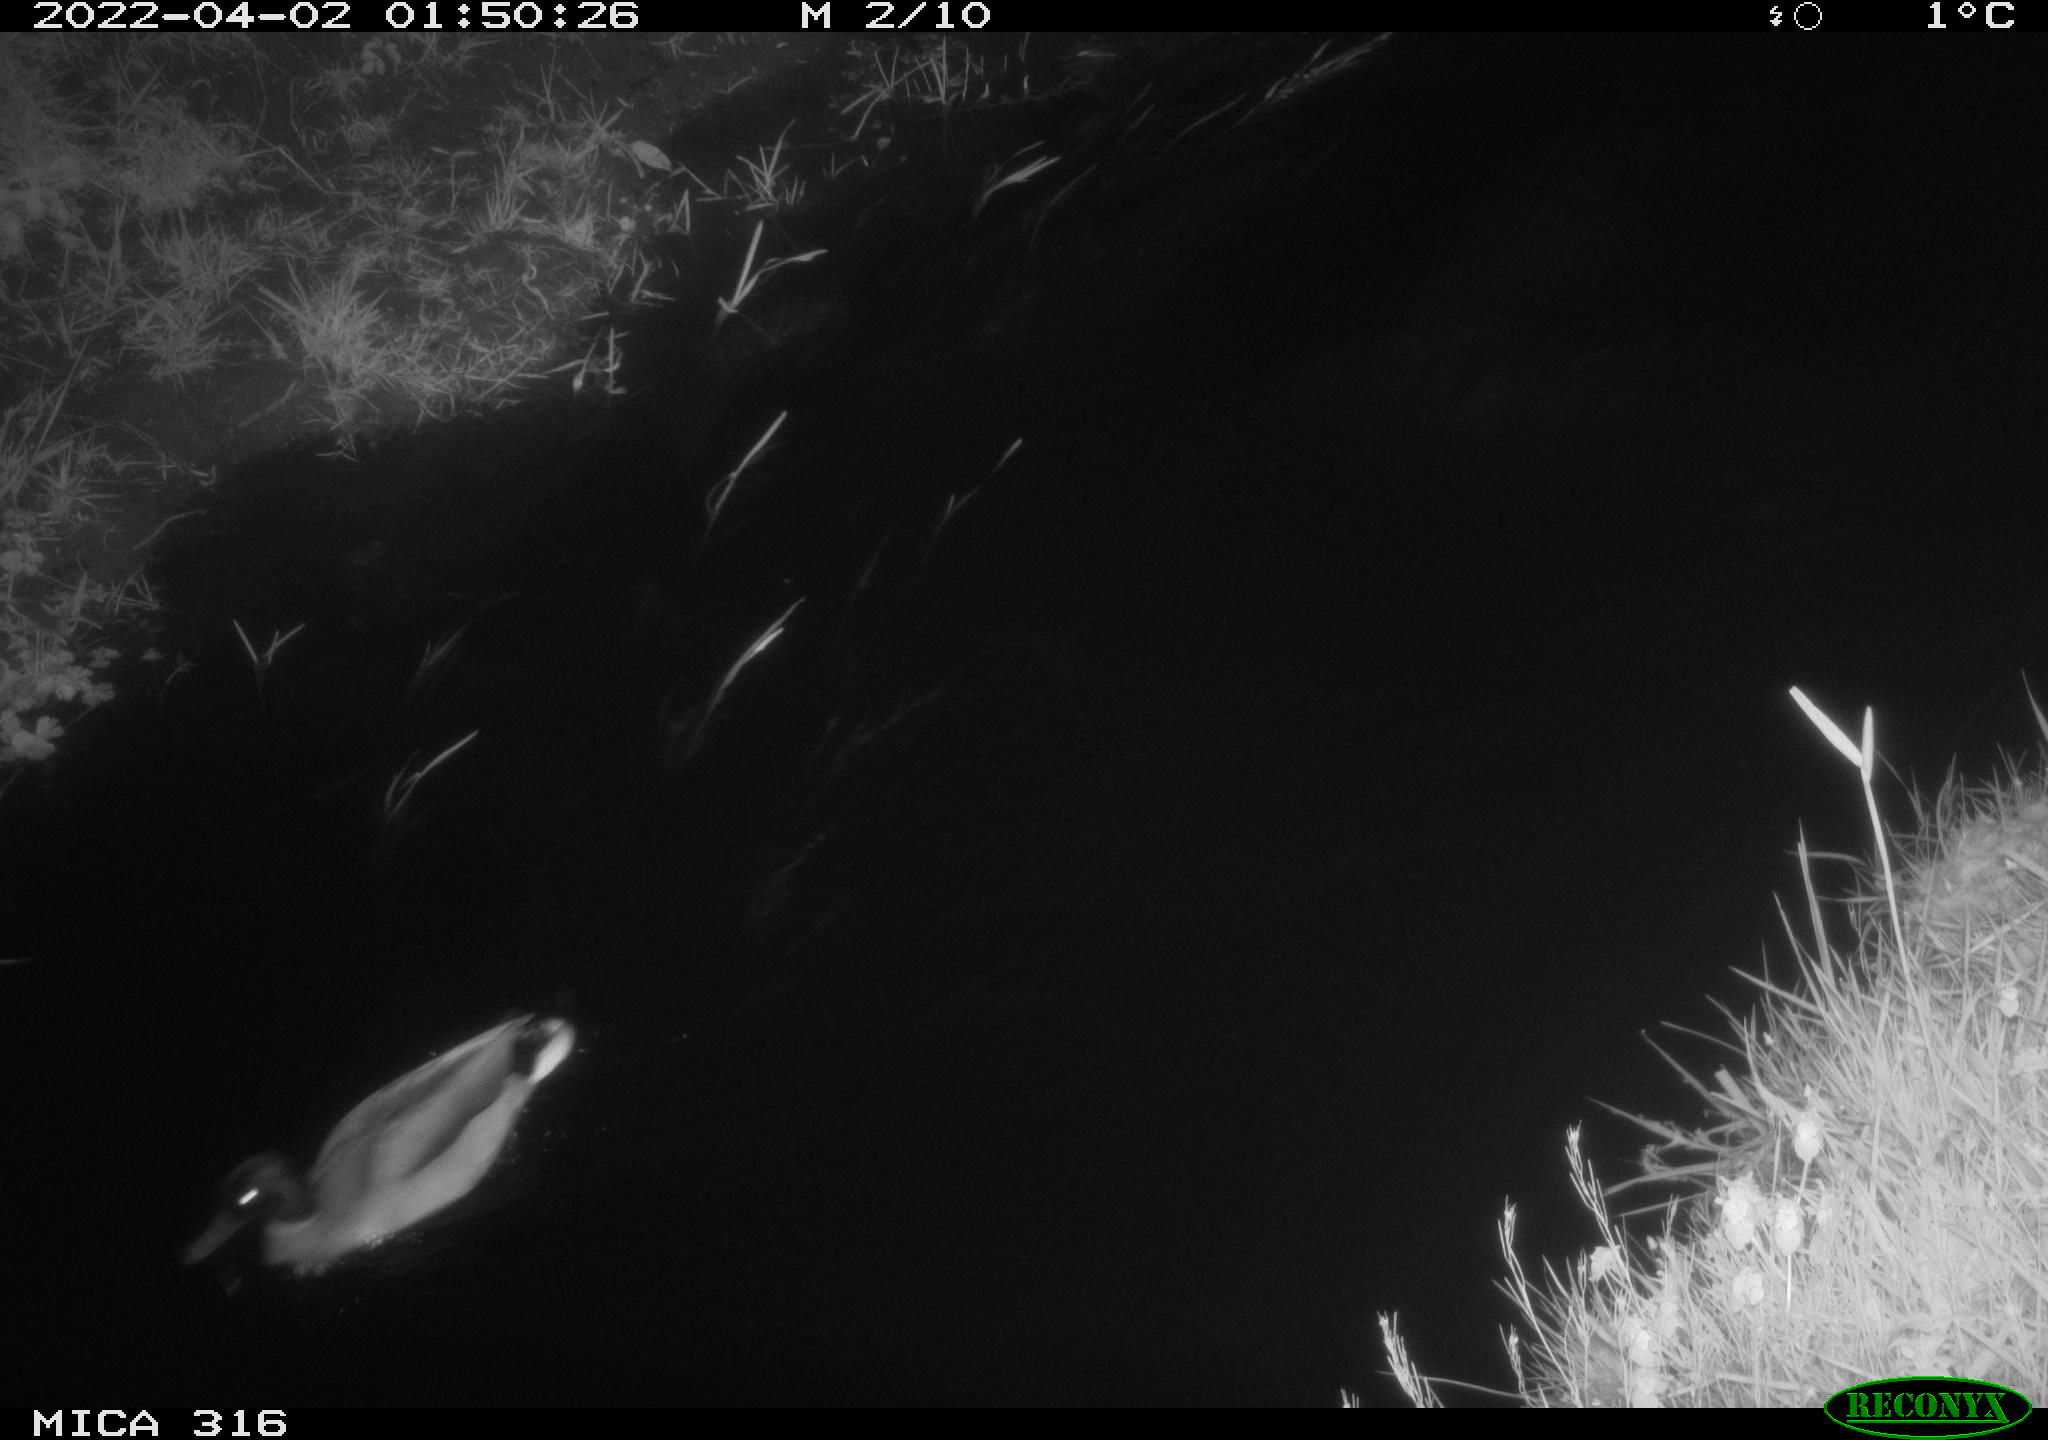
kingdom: Animalia
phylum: Chordata
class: Aves
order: Anseriformes
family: Anatidae
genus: Anas
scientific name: Anas platyrhynchos
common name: Mallard
